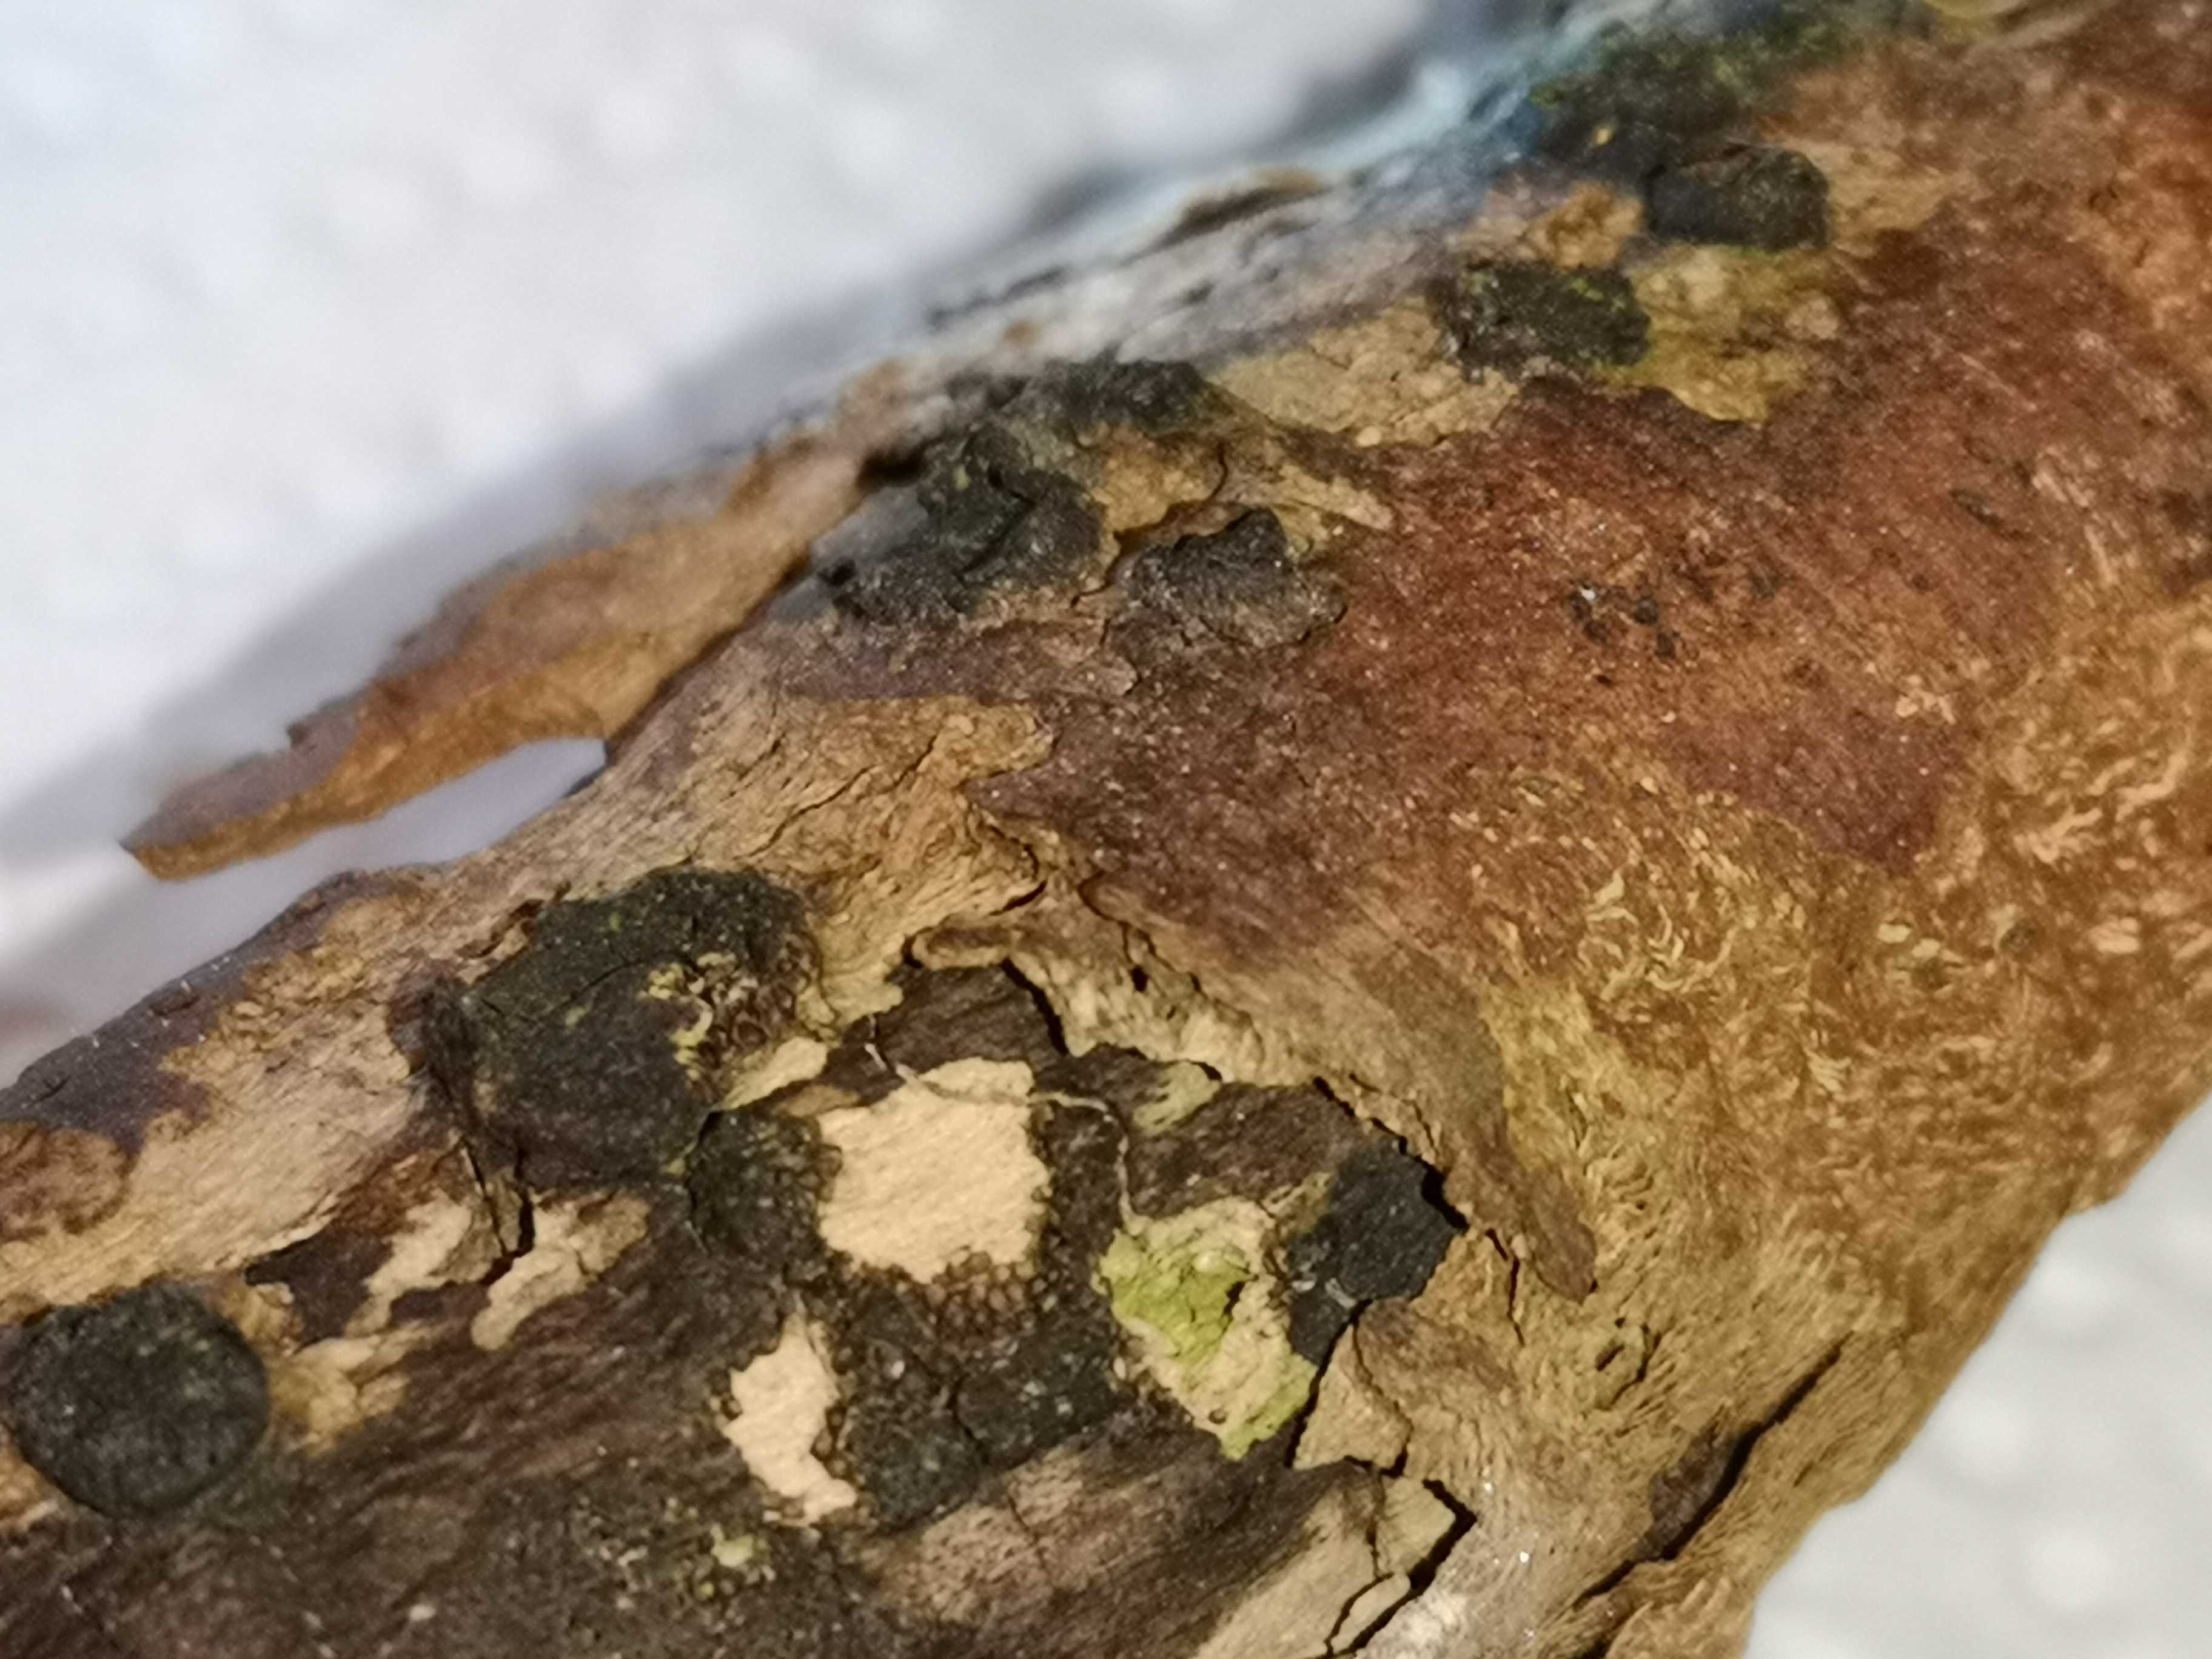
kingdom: Fungi
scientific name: Fungi
